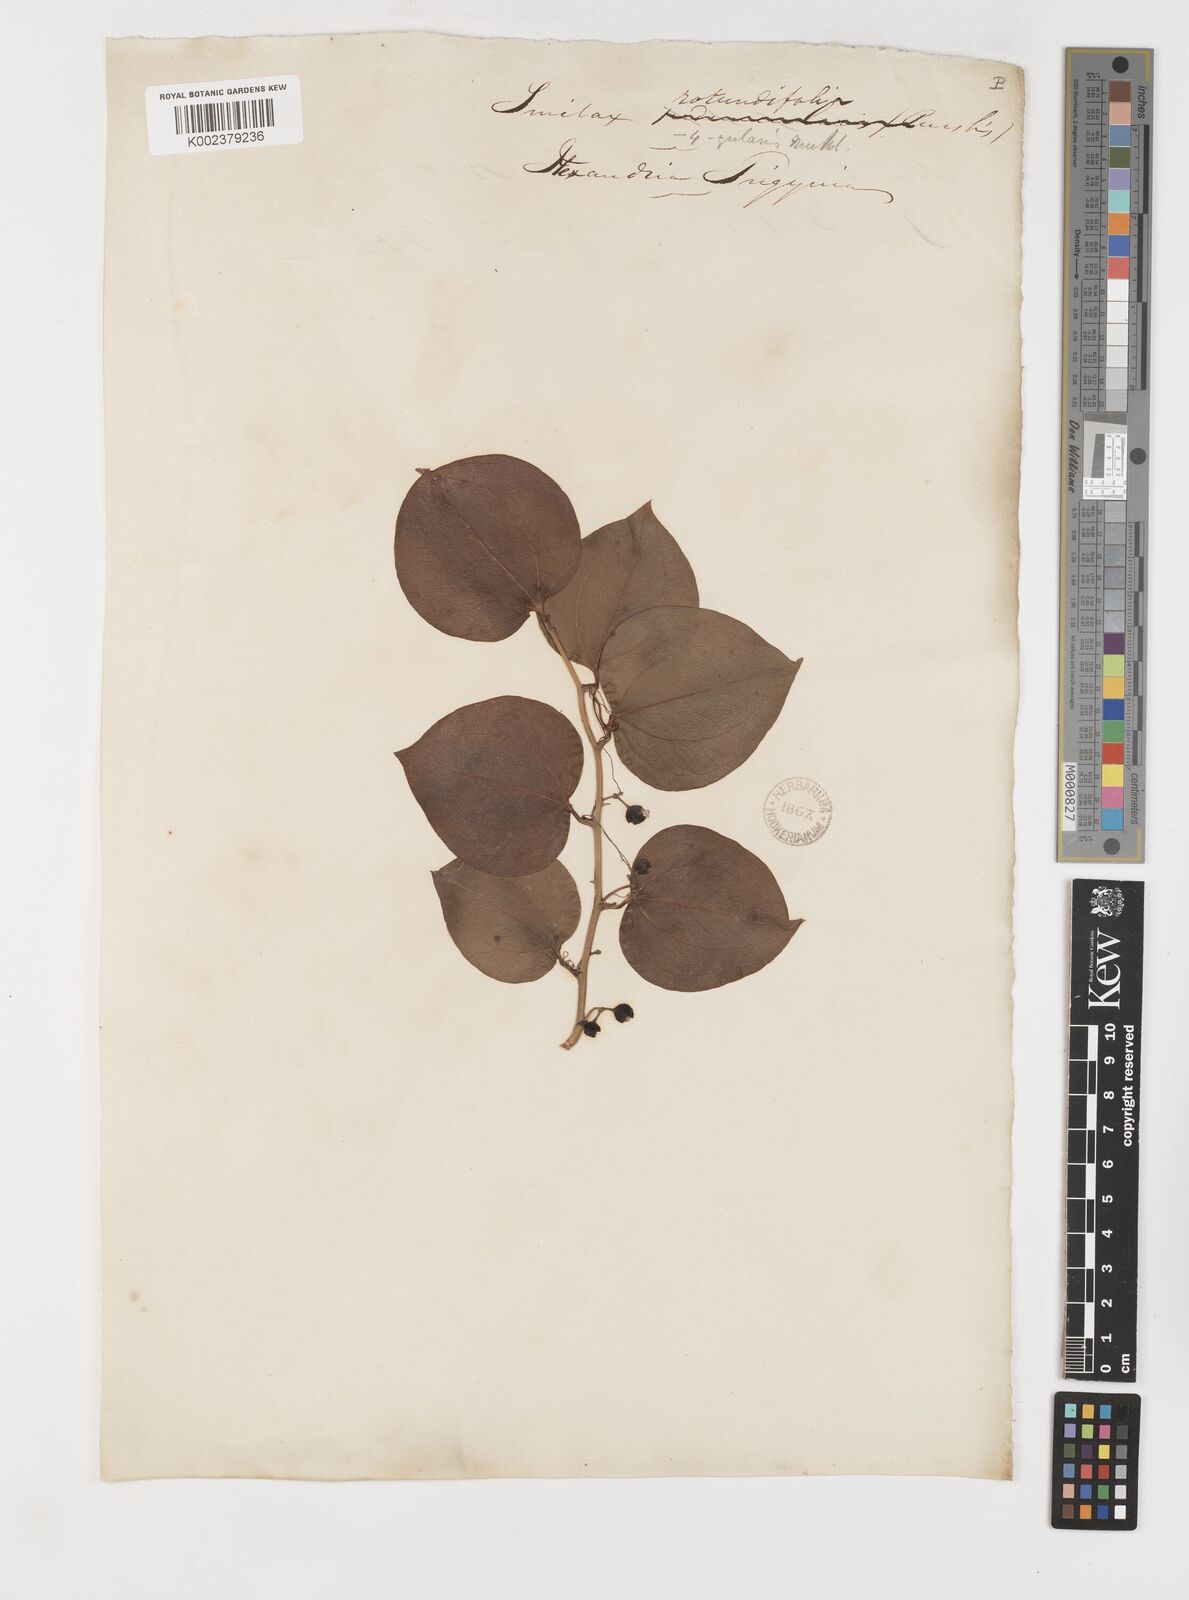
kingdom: Plantae
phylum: Tracheophyta
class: Liliopsida
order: Liliales
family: Smilacaceae
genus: Smilax
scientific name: Smilax rotundifolia
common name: Bullbriar
